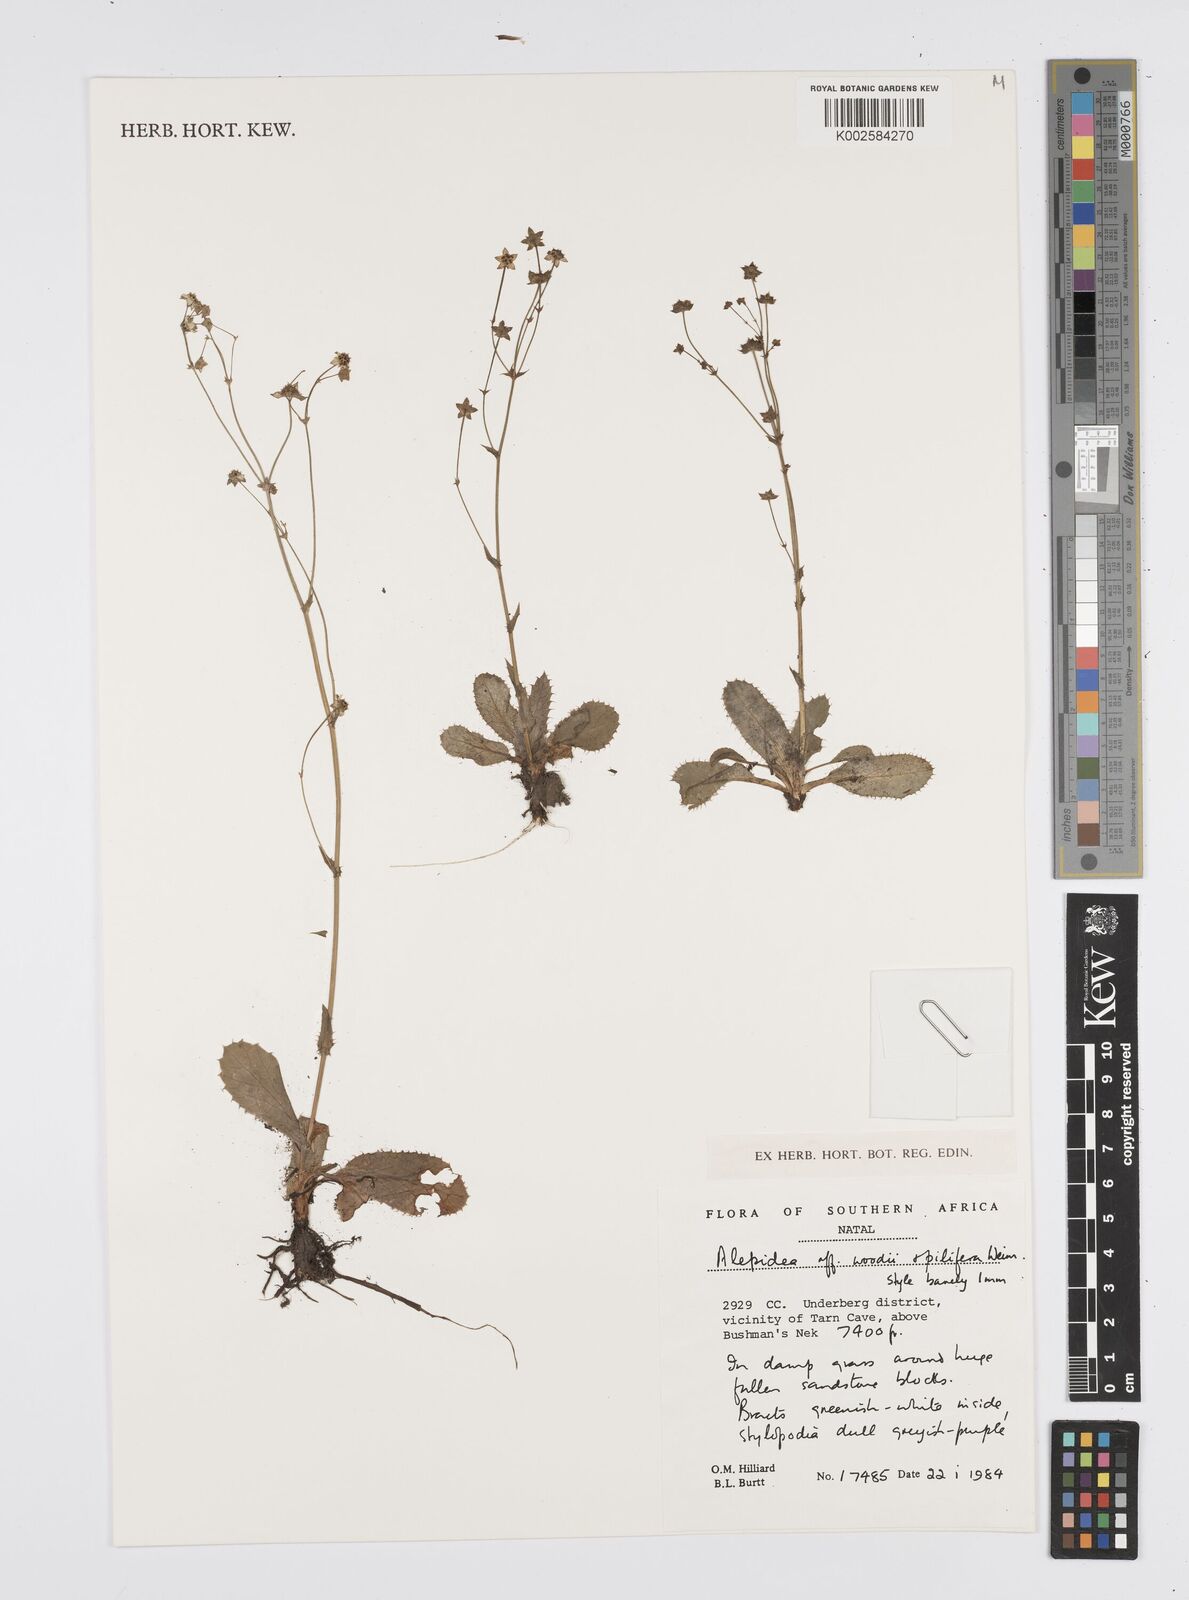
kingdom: Plantae
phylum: Tracheophyta
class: Magnoliopsida
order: Apiales
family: Apiaceae
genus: Alepidea
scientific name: Alepidea
